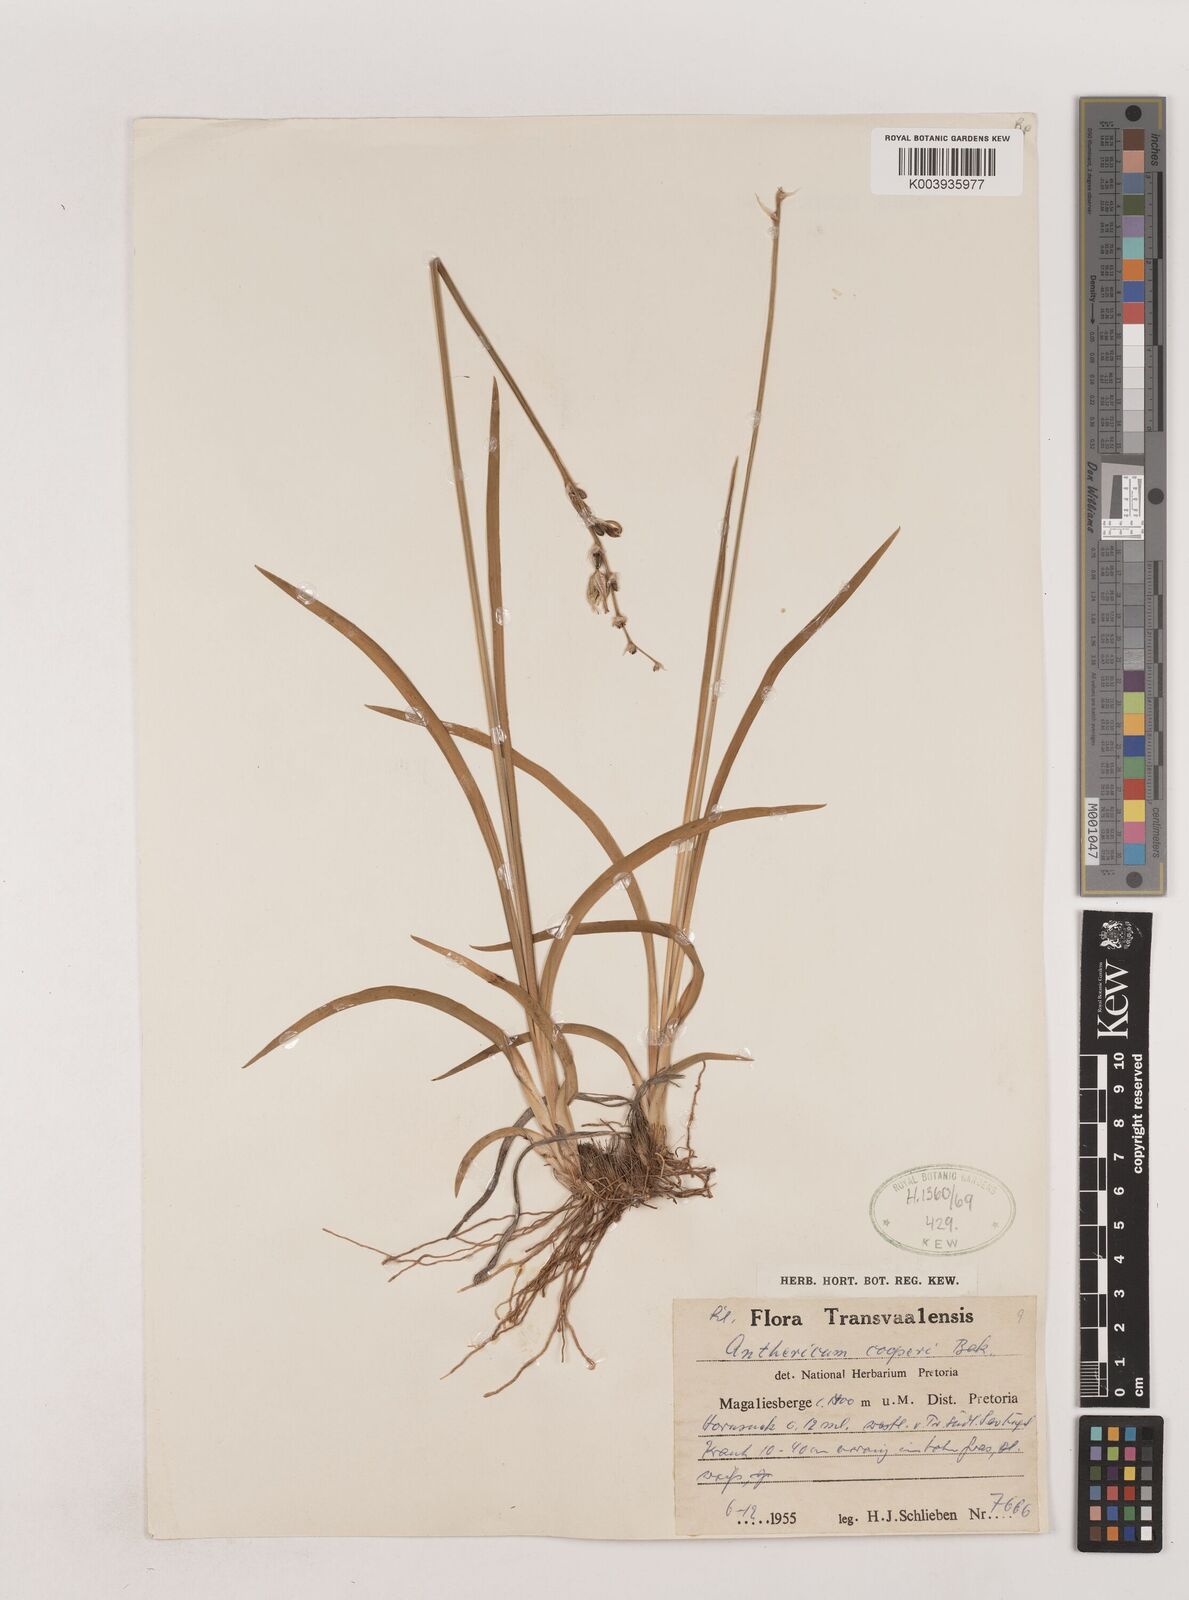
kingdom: Plantae
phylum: Tracheophyta
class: Liliopsida
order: Asparagales
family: Asparagaceae
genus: Chlorophytum
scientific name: Chlorophytum cooperi
